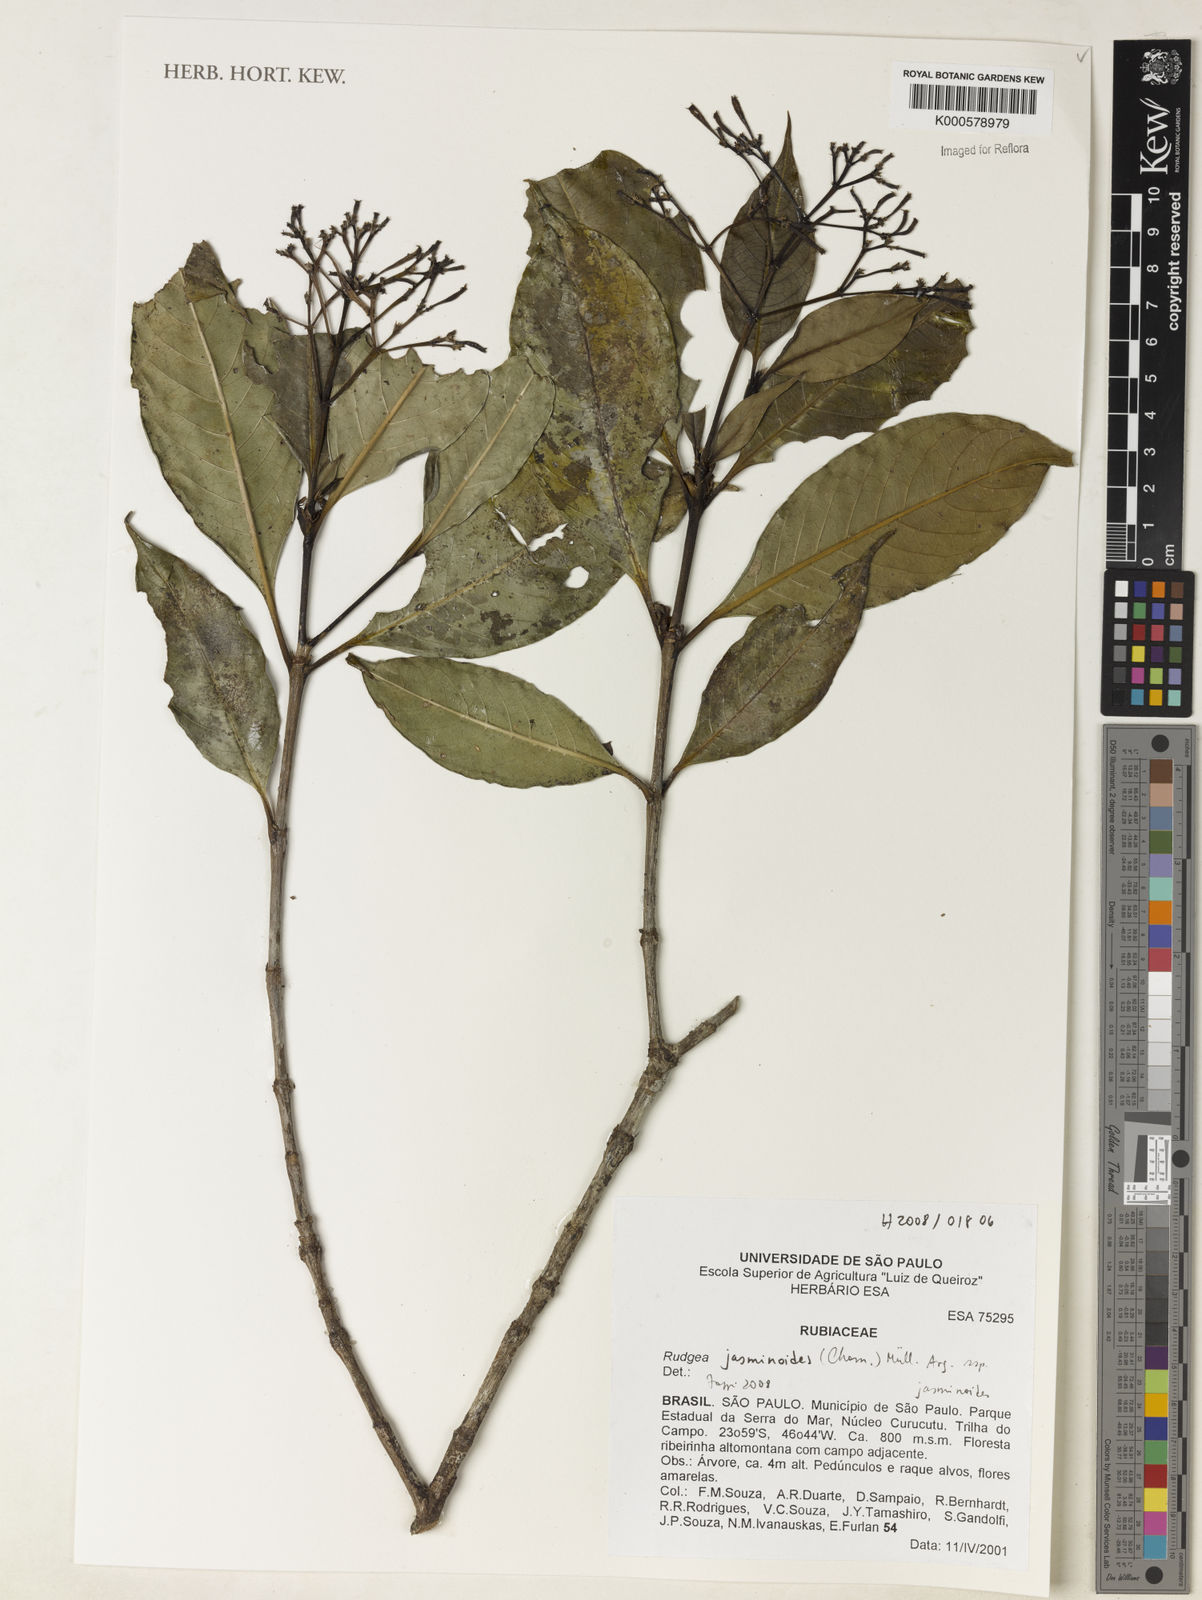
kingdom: Plantae
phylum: Tracheophyta
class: Magnoliopsida
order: Gentianales
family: Rubiaceae
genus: Rudgea
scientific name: Rudgea jasminoides
